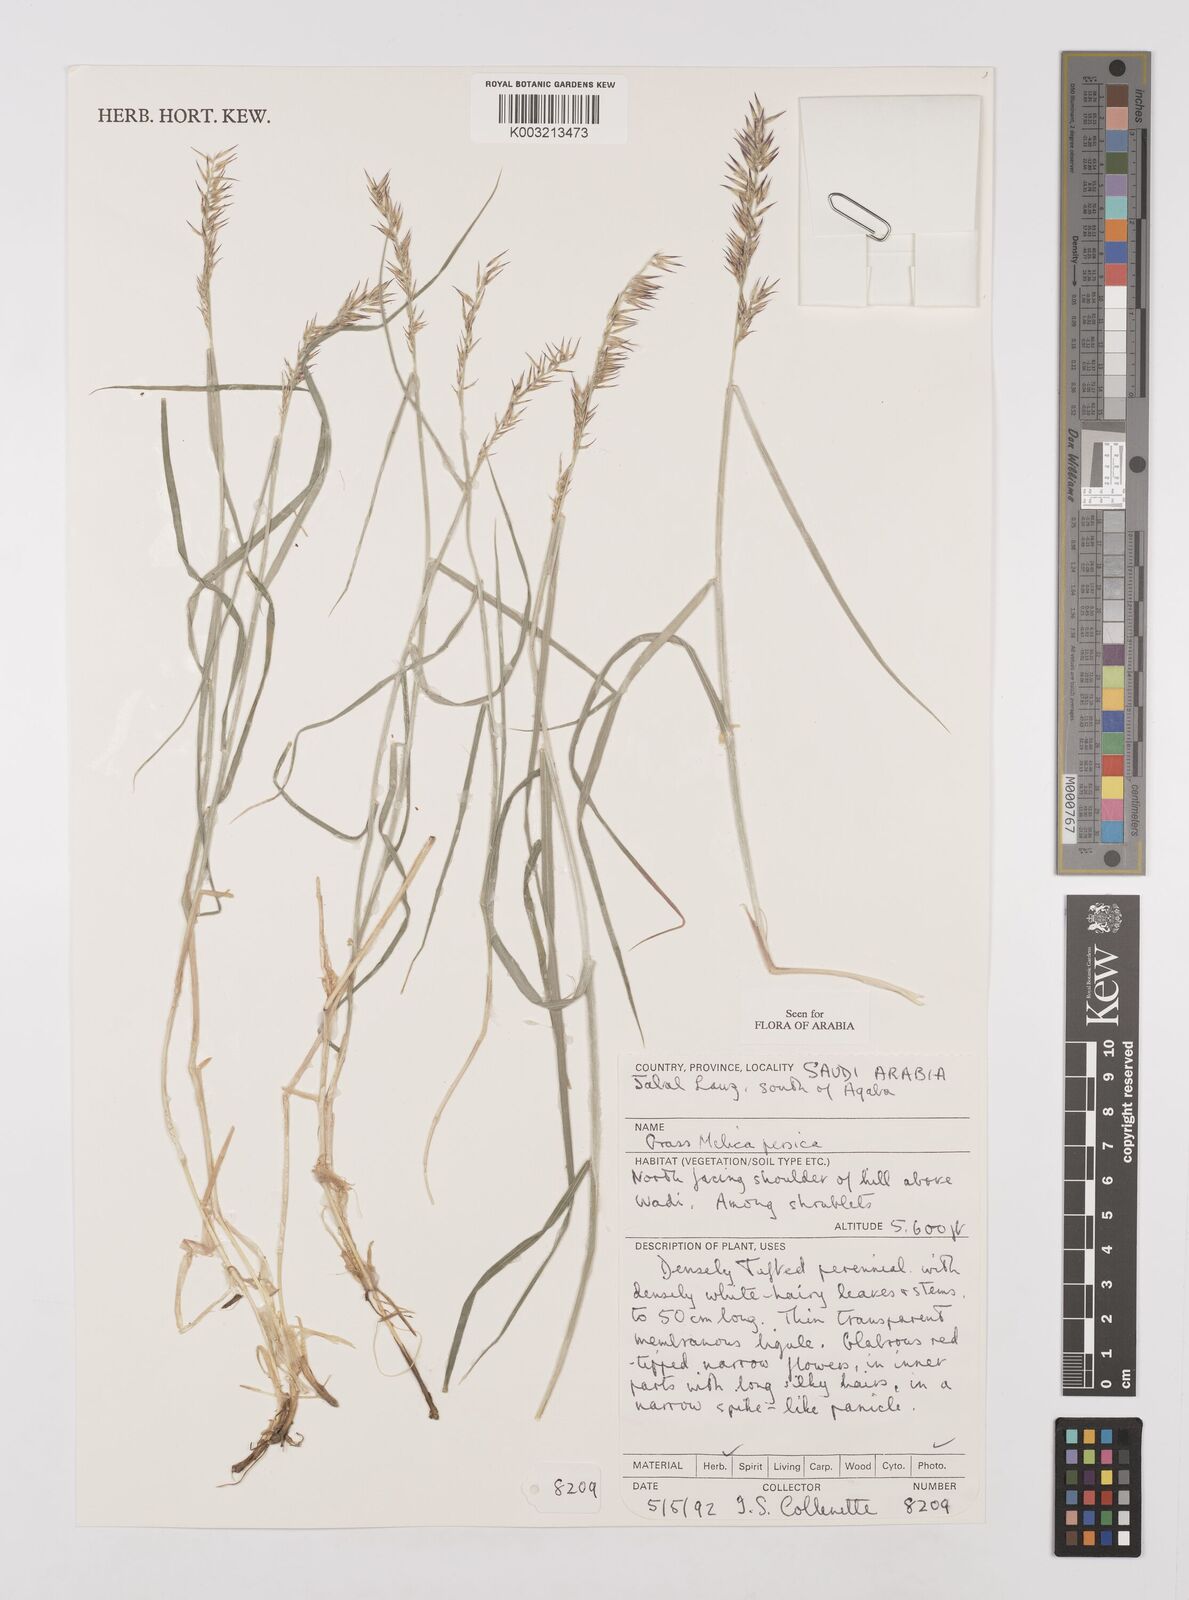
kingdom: Plantae
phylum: Tracheophyta
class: Liliopsida
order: Poales
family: Poaceae
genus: Melica
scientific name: Melica persica
